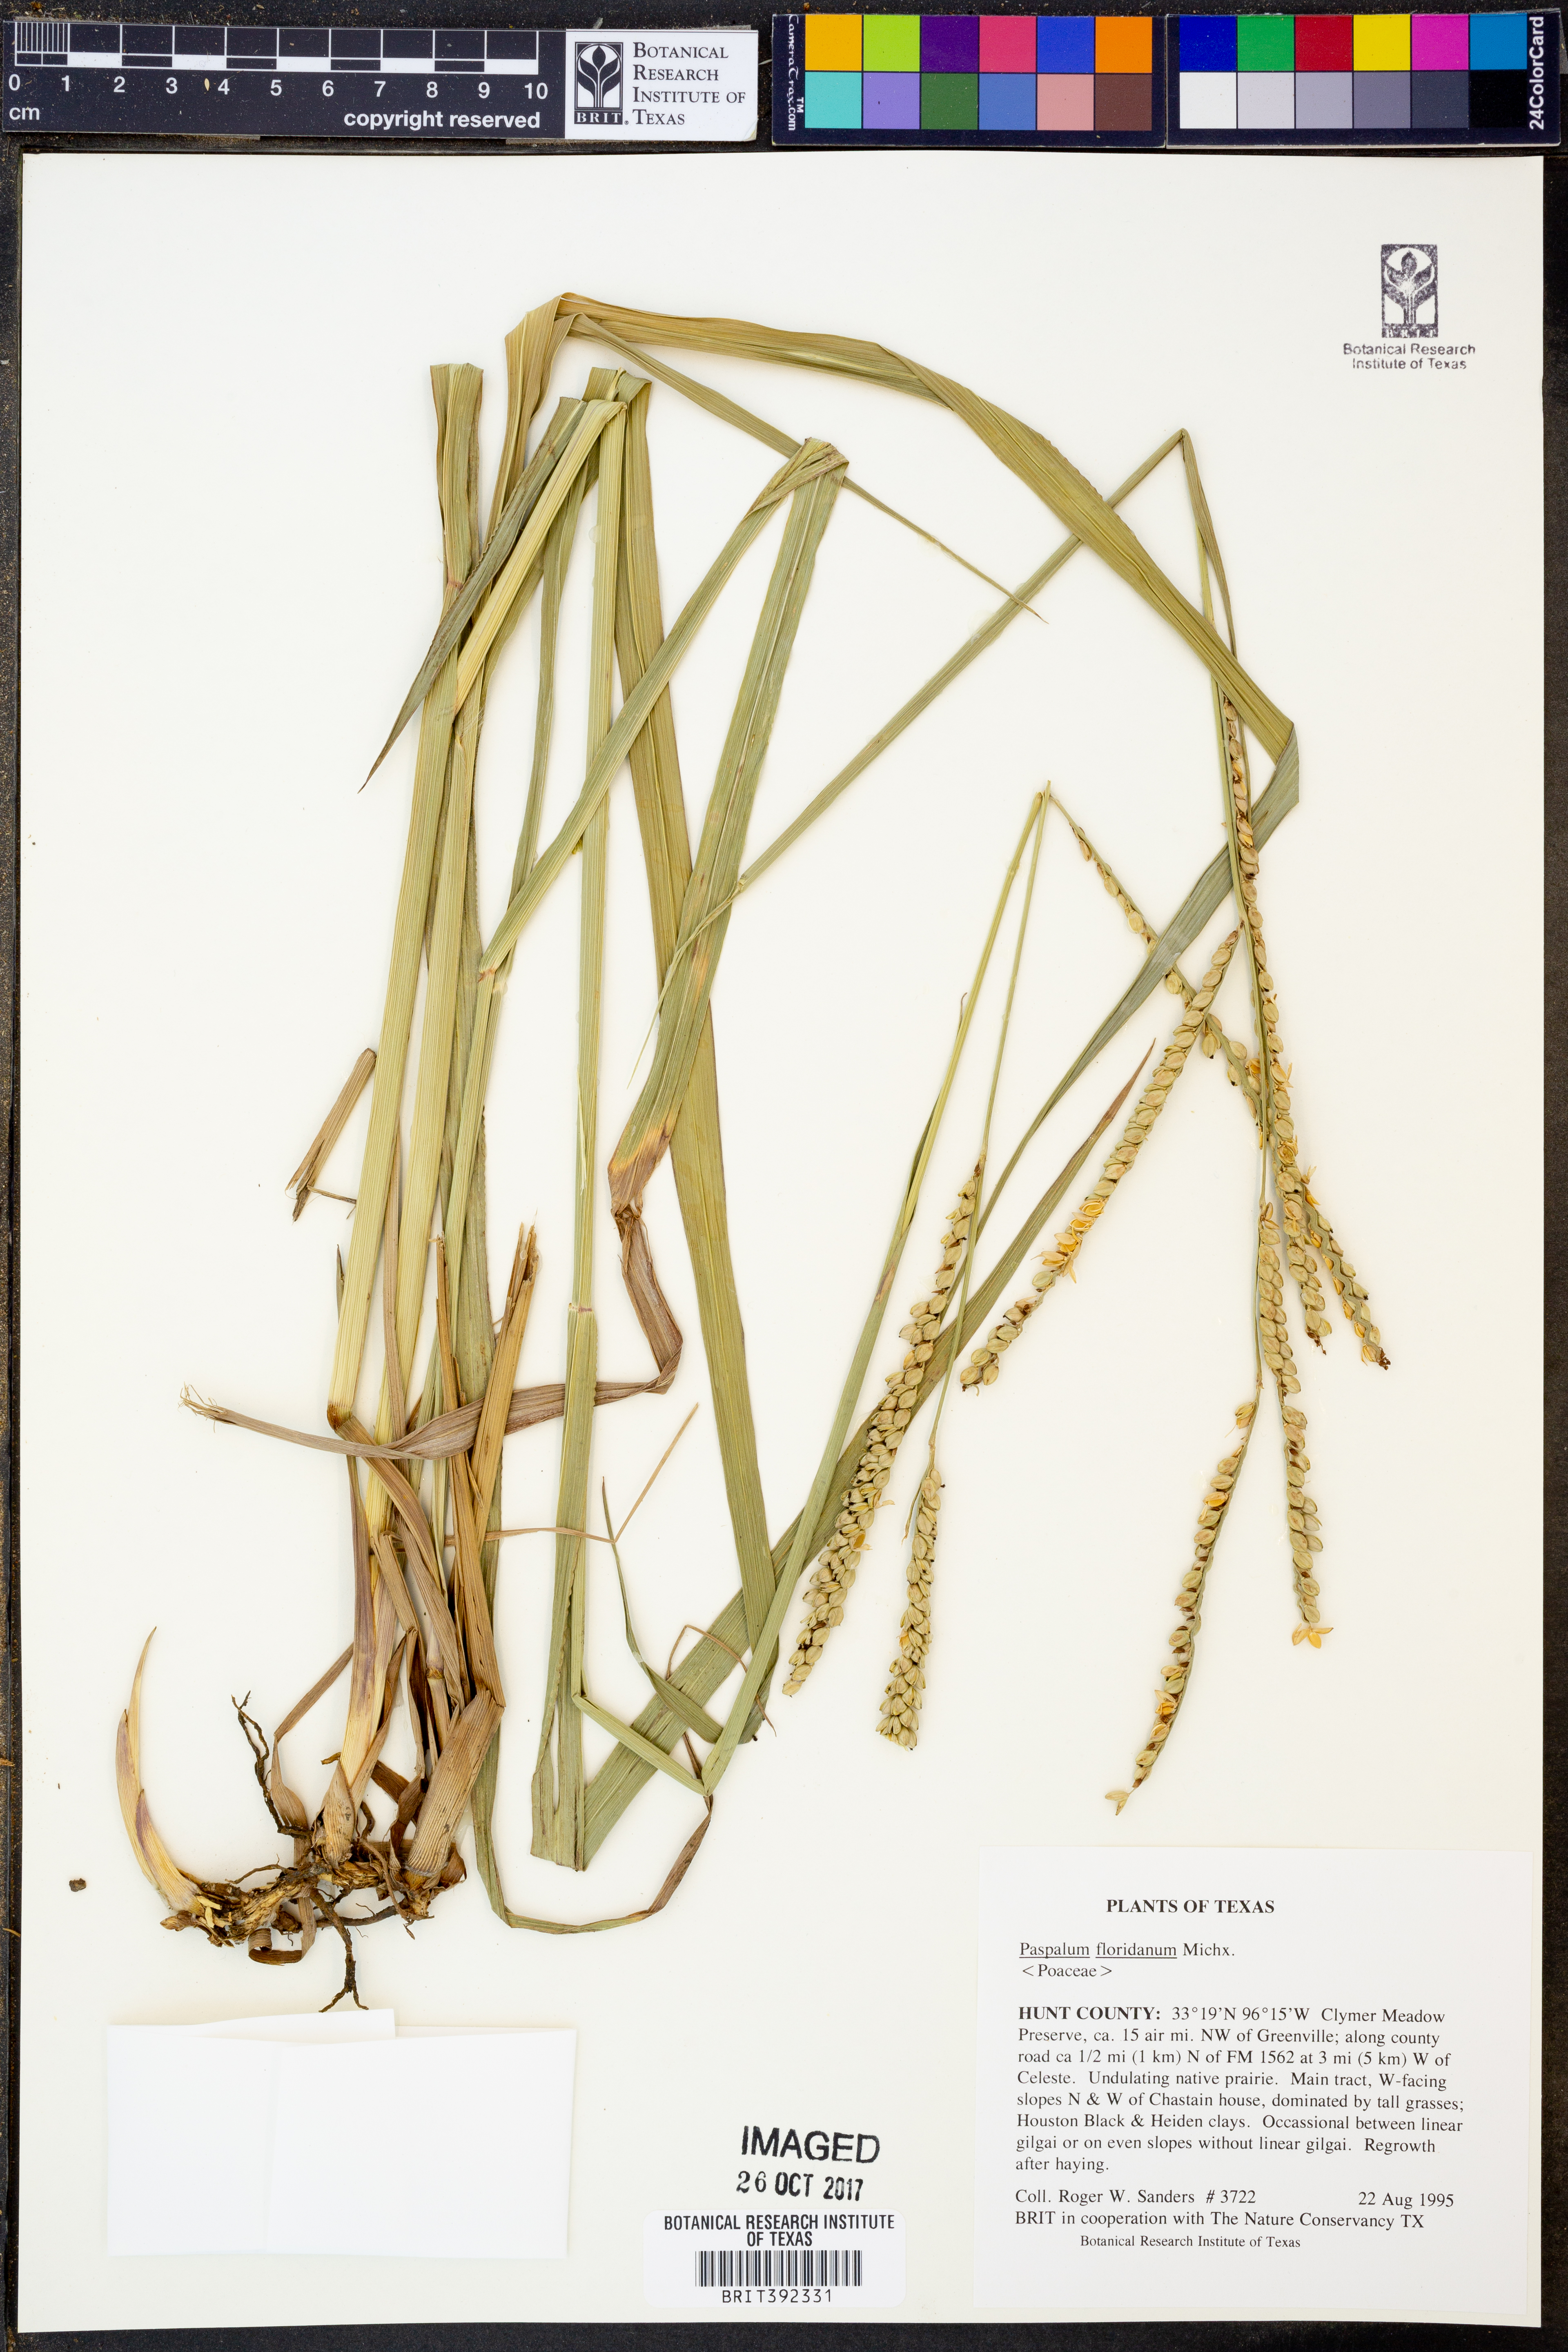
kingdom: Plantae
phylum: Tracheophyta
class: Liliopsida
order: Poales
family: Poaceae
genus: Paspalum
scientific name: Paspalum floridanum
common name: Florida paspalum
